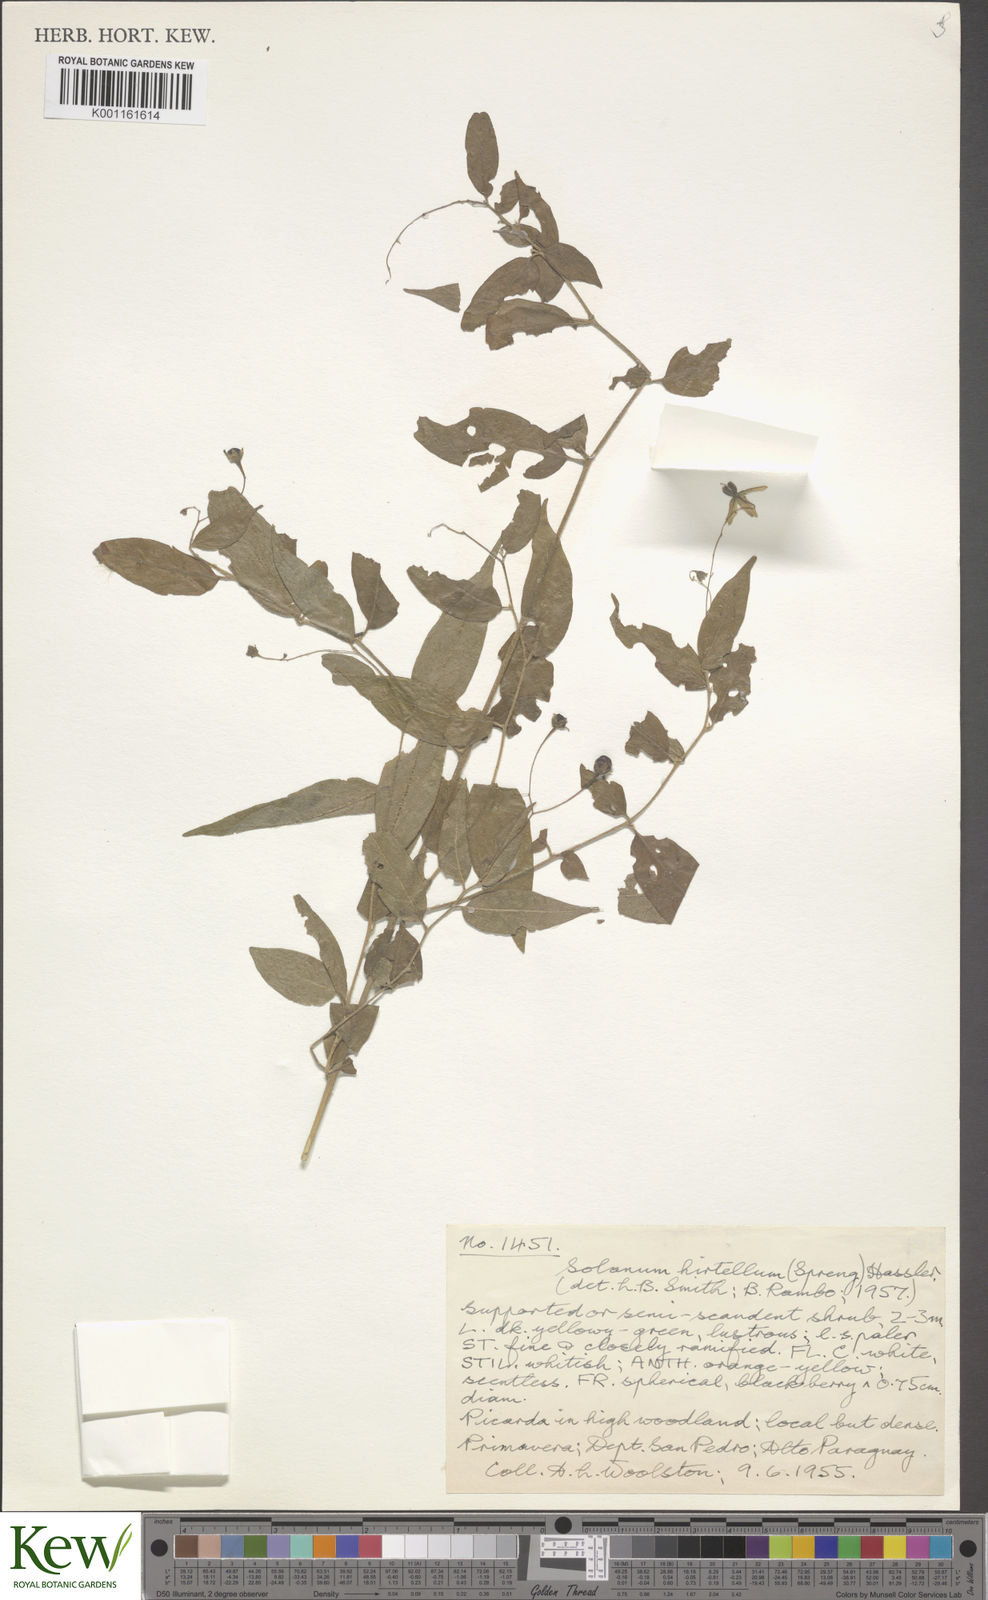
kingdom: Plantae
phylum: Tracheophyta
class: Magnoliopsida
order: Solanales
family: Solanaceae
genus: Solanum
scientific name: Solanum hirtellum
